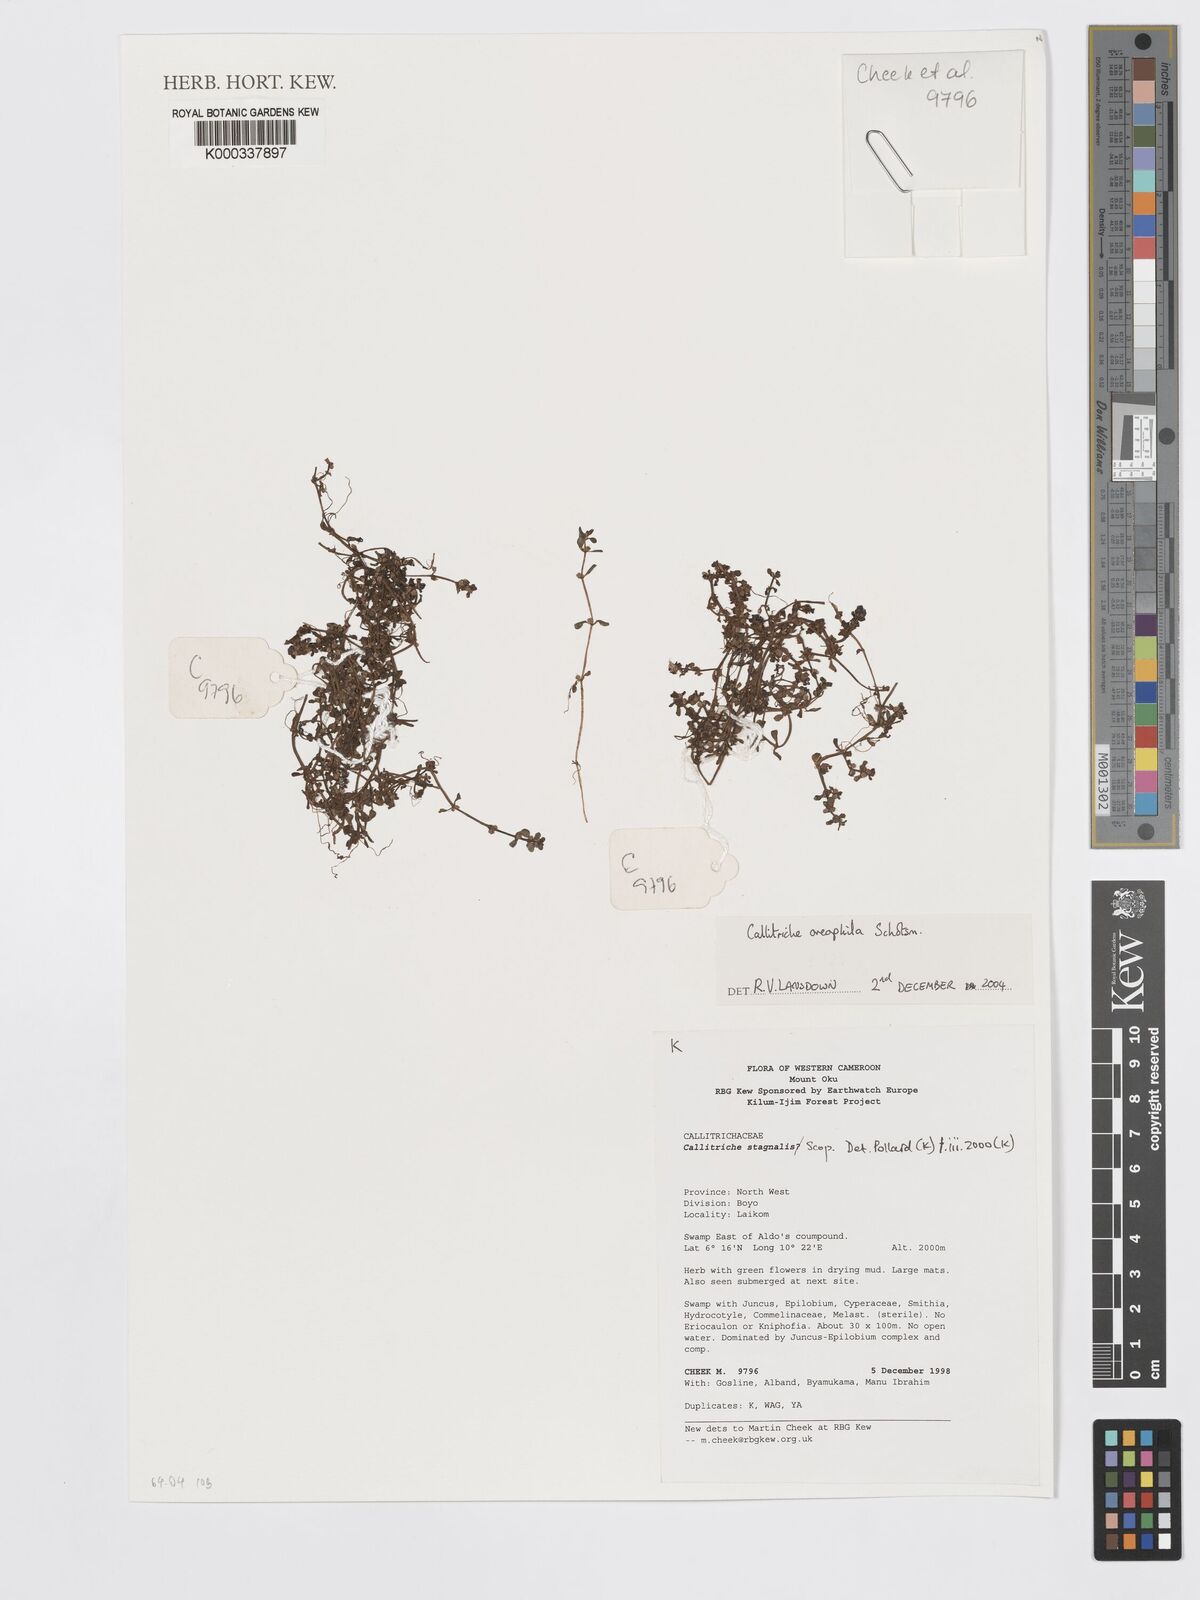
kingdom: Plantae
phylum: Tracheophyta
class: Magnoliopsida
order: Lamiales
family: Plantaginaceae
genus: Callitriche
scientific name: Callitriche stagnalis
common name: Common water-starwort
